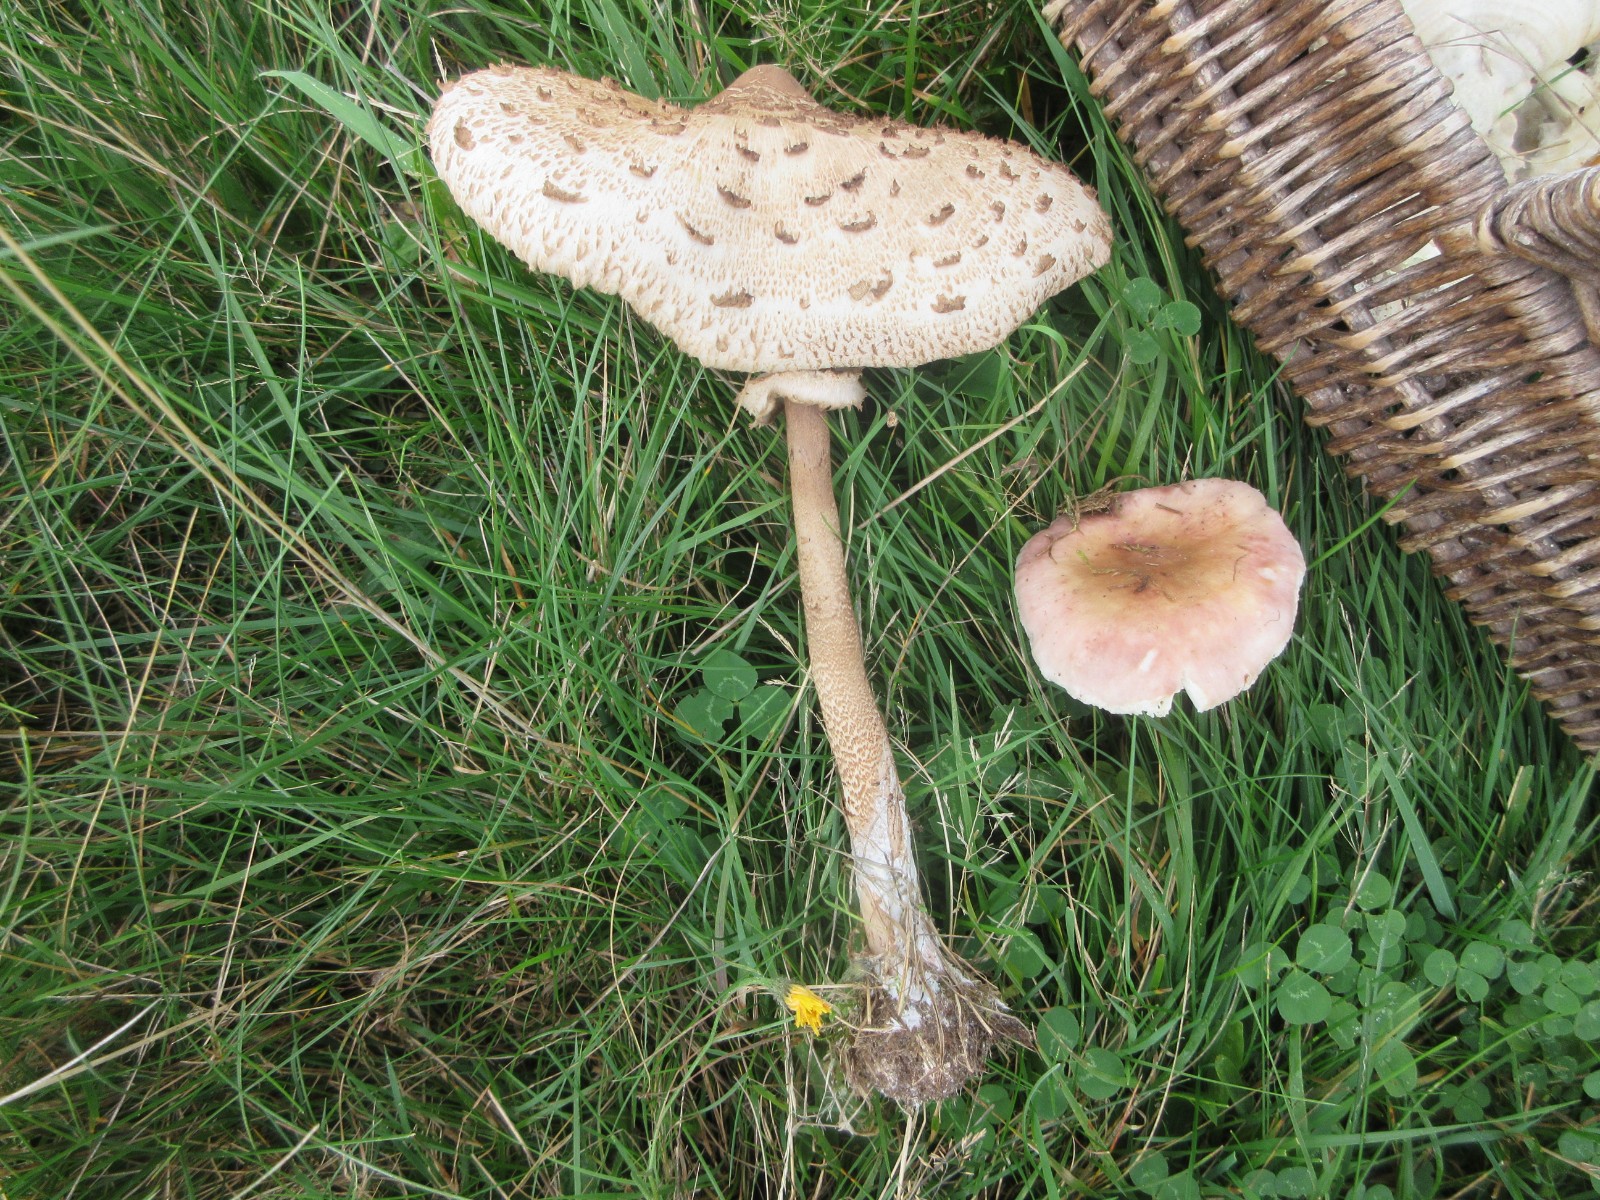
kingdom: Fungi
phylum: Basidiomycota
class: Agaricomycetes
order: Agaricales
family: Agaricaceae
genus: Macrolepiota
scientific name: Macrolepiota procera
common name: stor kæmpeparasolhat
